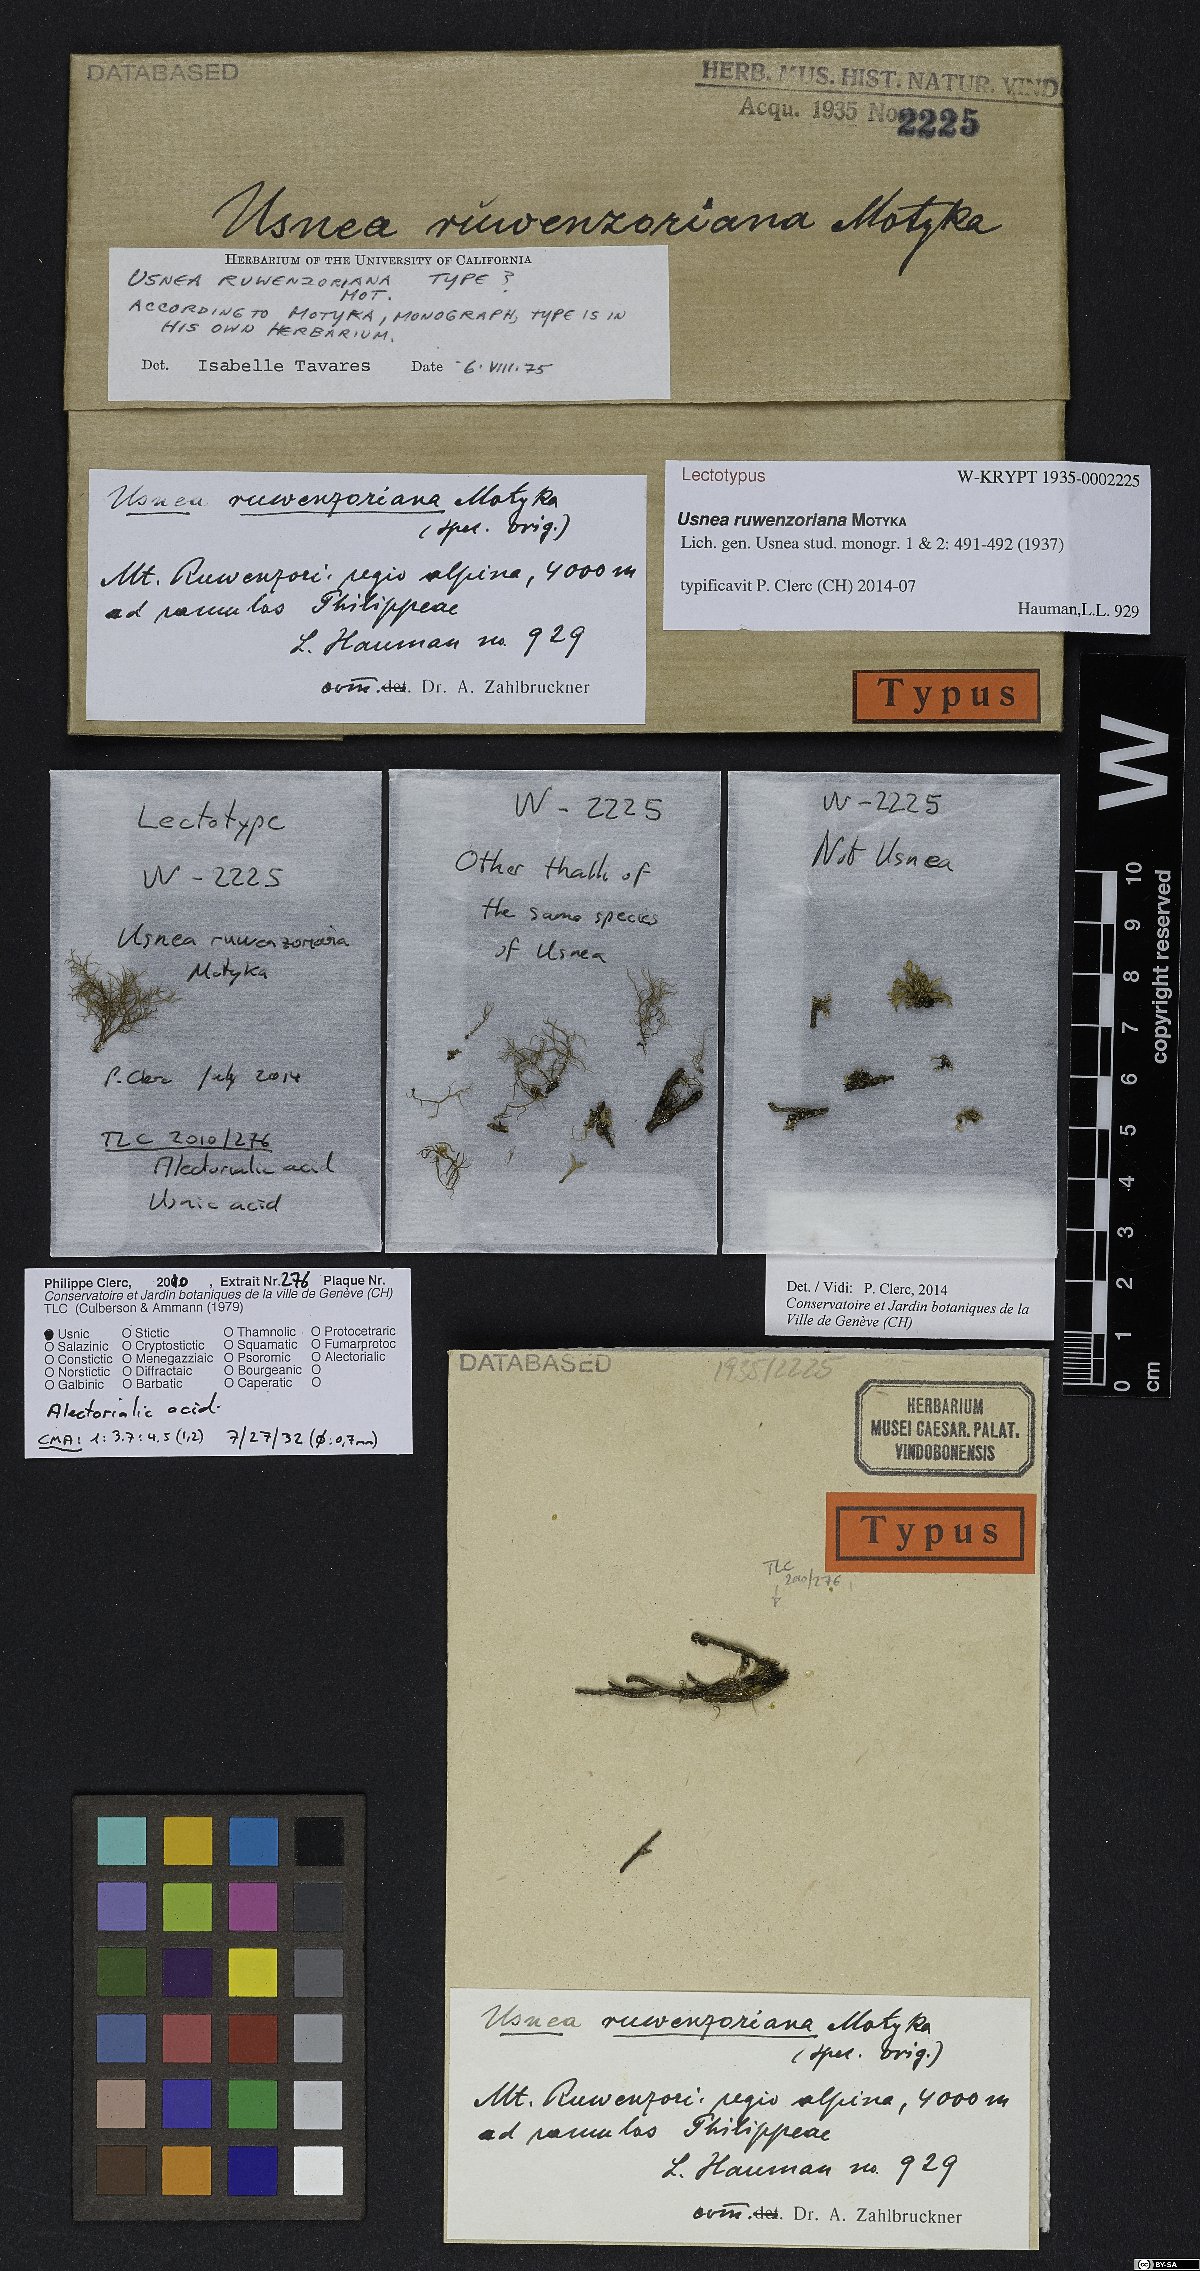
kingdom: Fungi
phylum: Ascomycota
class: Lecanoromycetes
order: Lecanorales
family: Parmeliaceae
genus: Usnea
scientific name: Usnea ruwenzoriana
